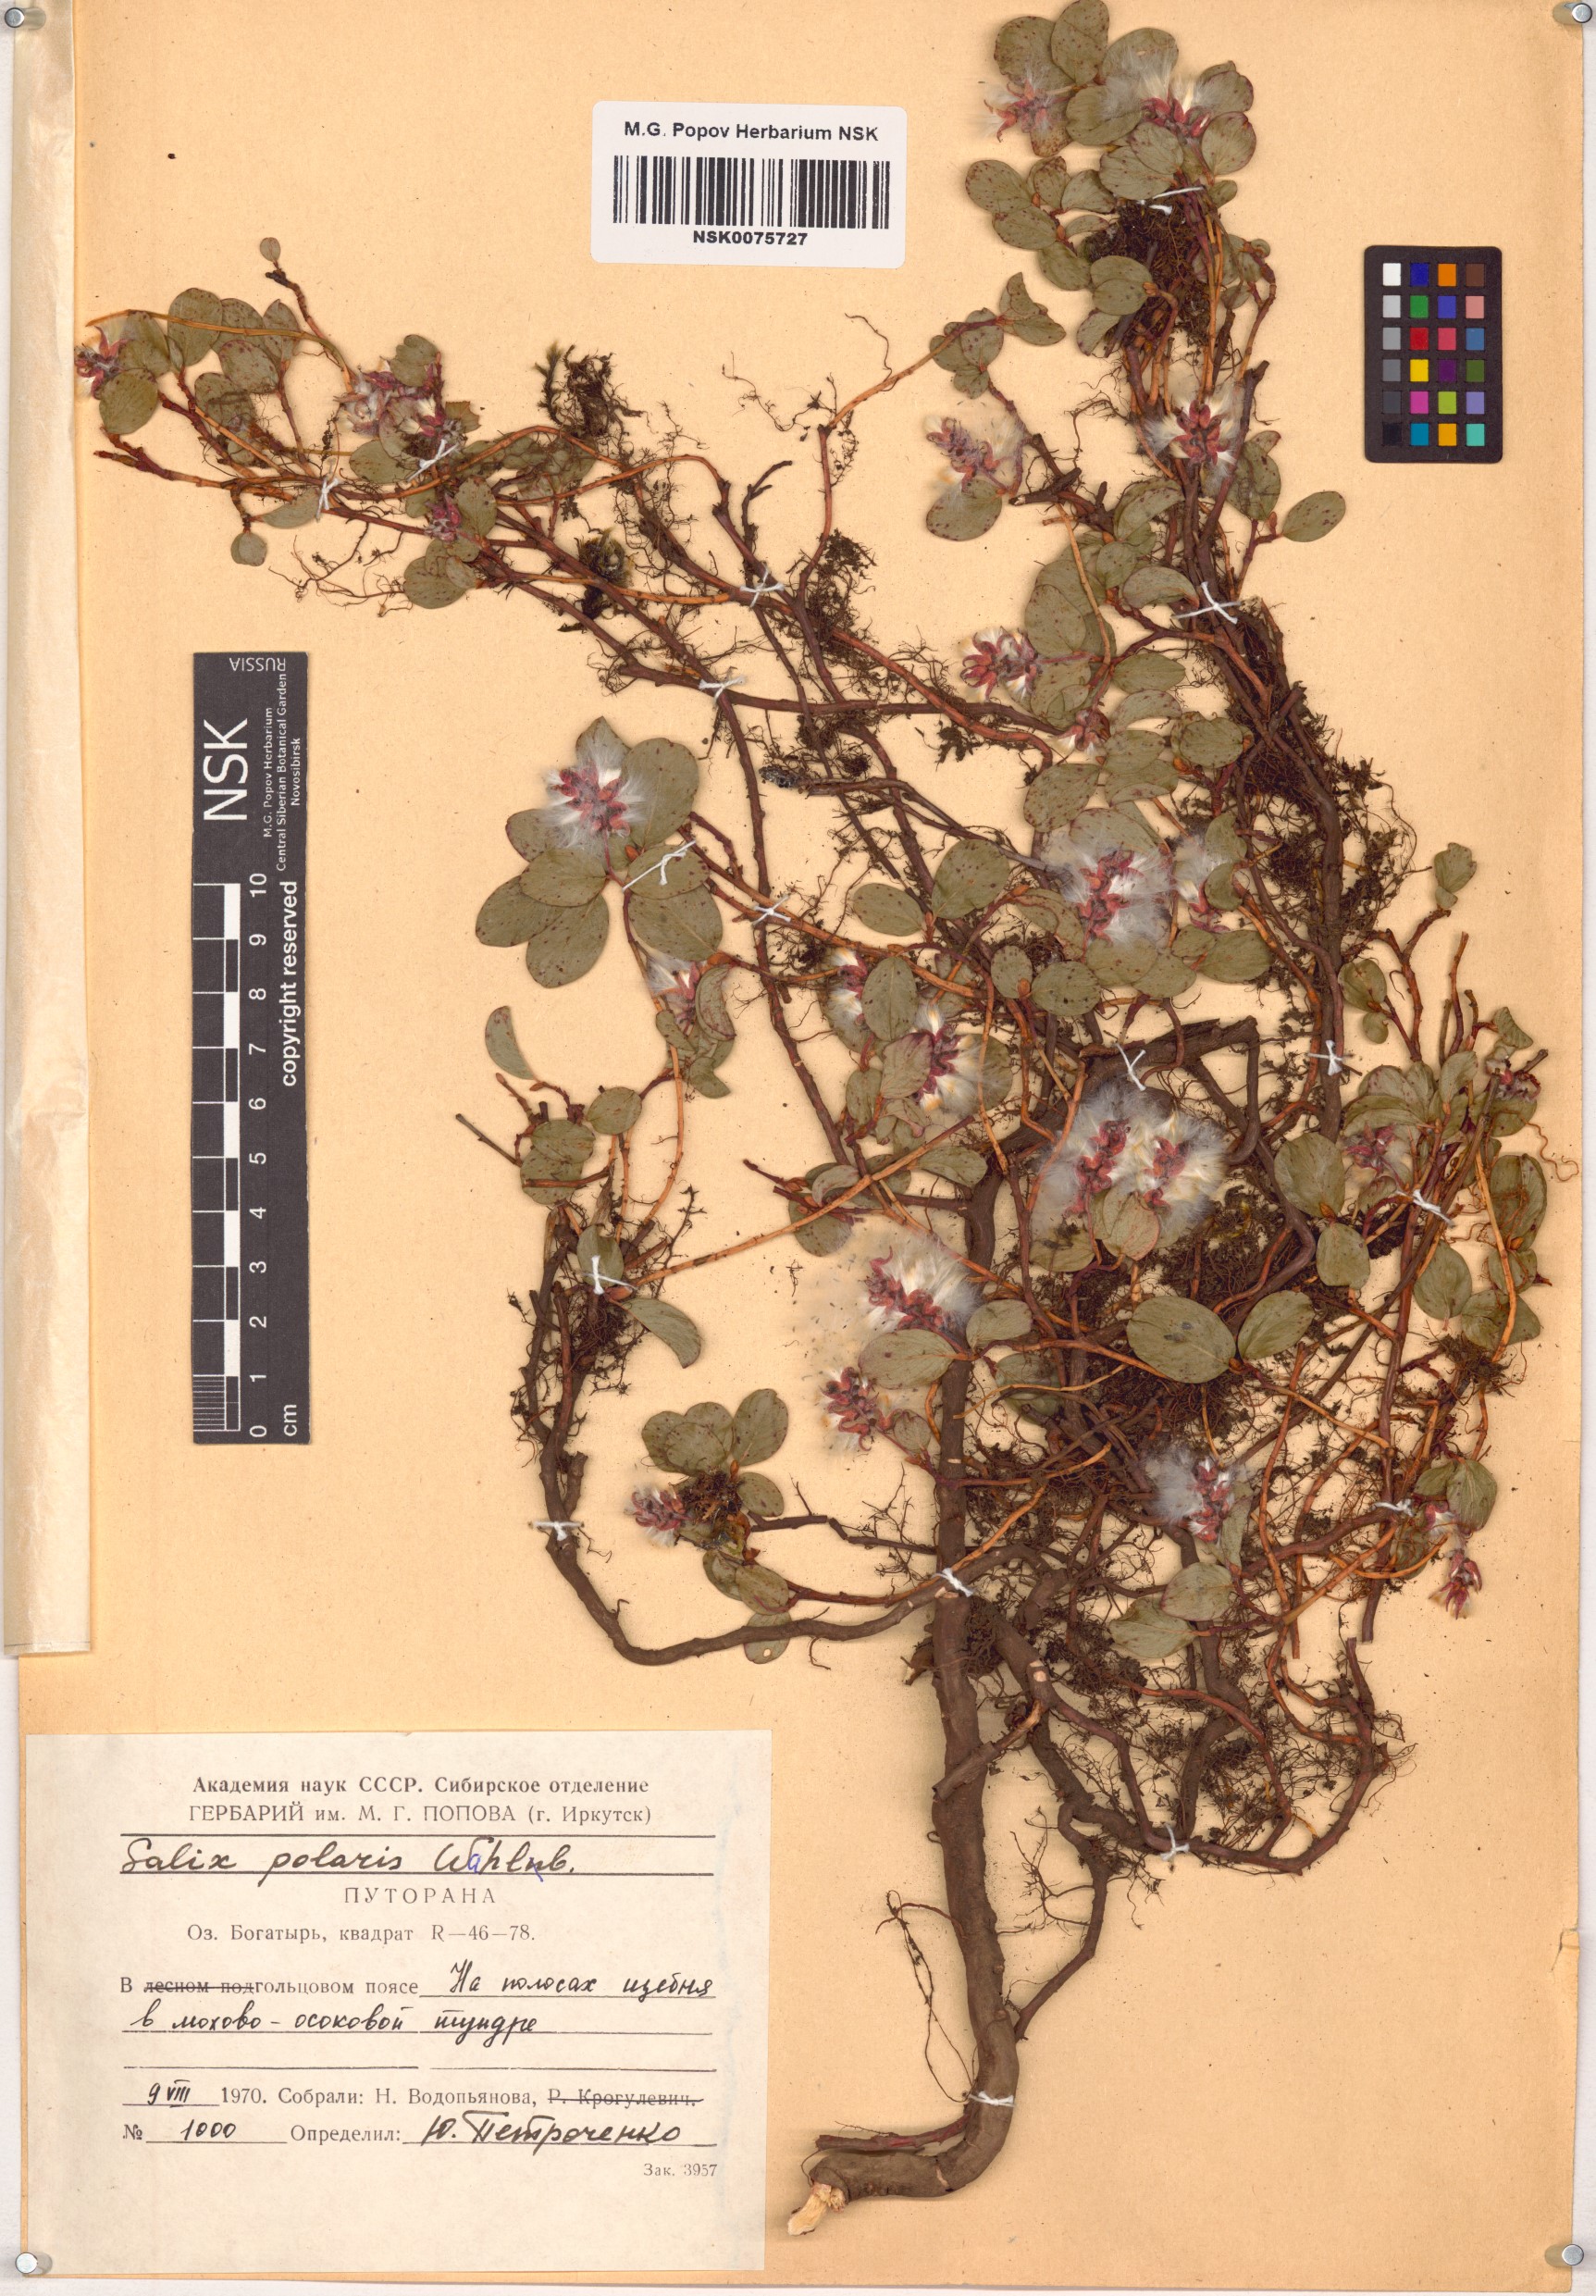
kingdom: Plantae
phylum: Tracheophyta
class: Magnoliopsida
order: Malpighiales
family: Salicaceae
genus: Salix
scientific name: Salix polaris
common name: Polar willow
